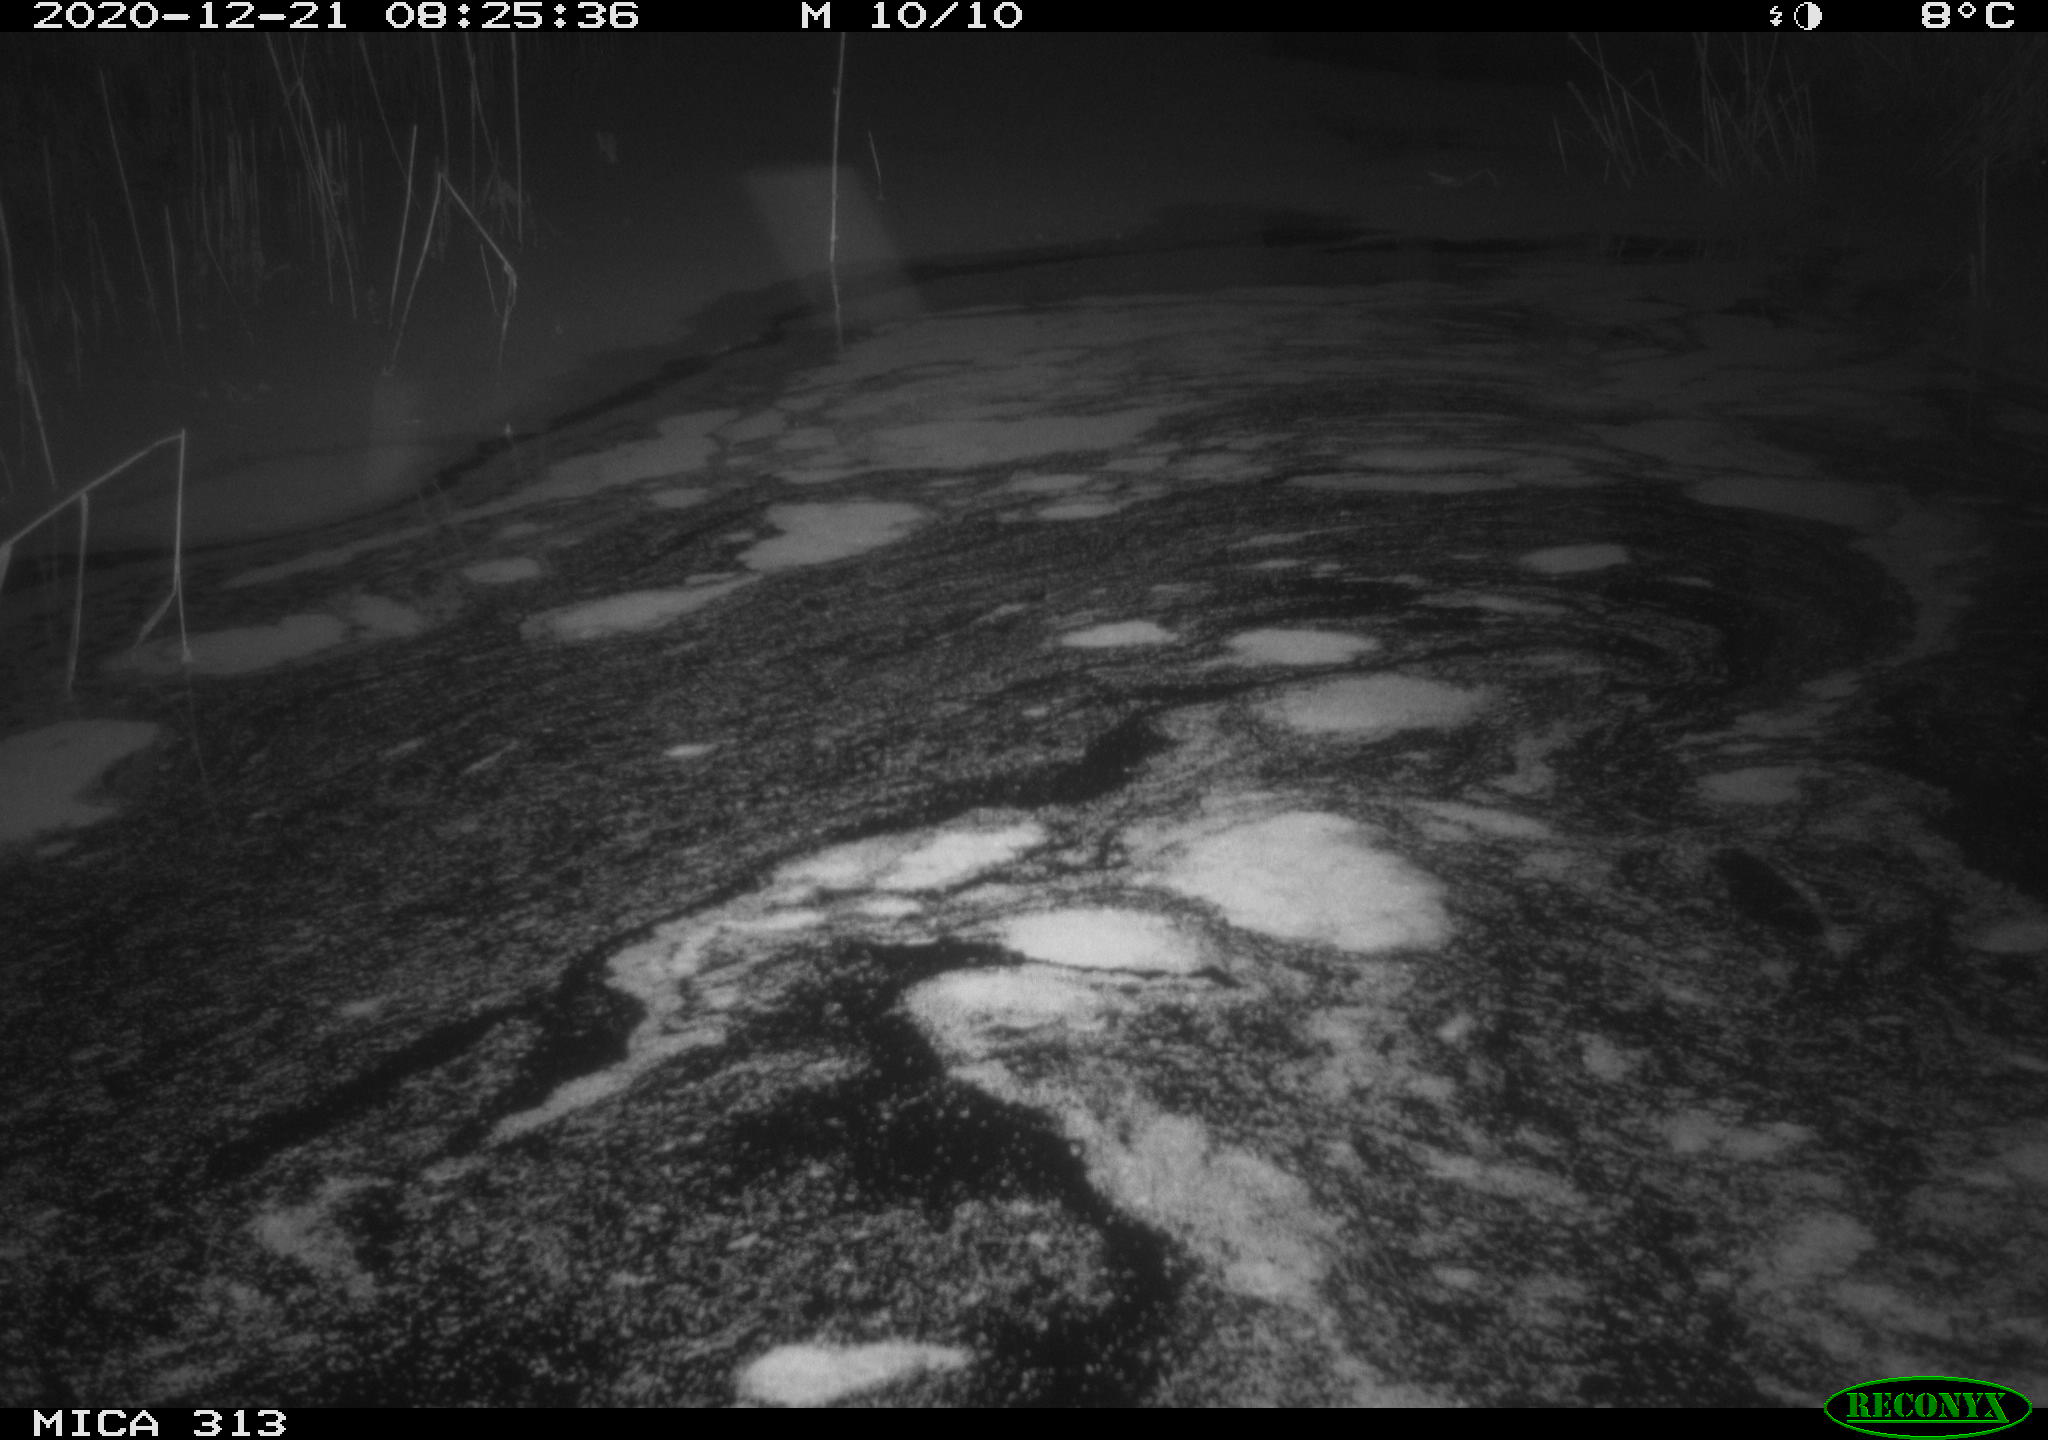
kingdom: Animalia
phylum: Chordata
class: Aves
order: Gruiformes
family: Rallidae
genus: Gallinula
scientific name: Gallinula chloropus
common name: Common moorhen
